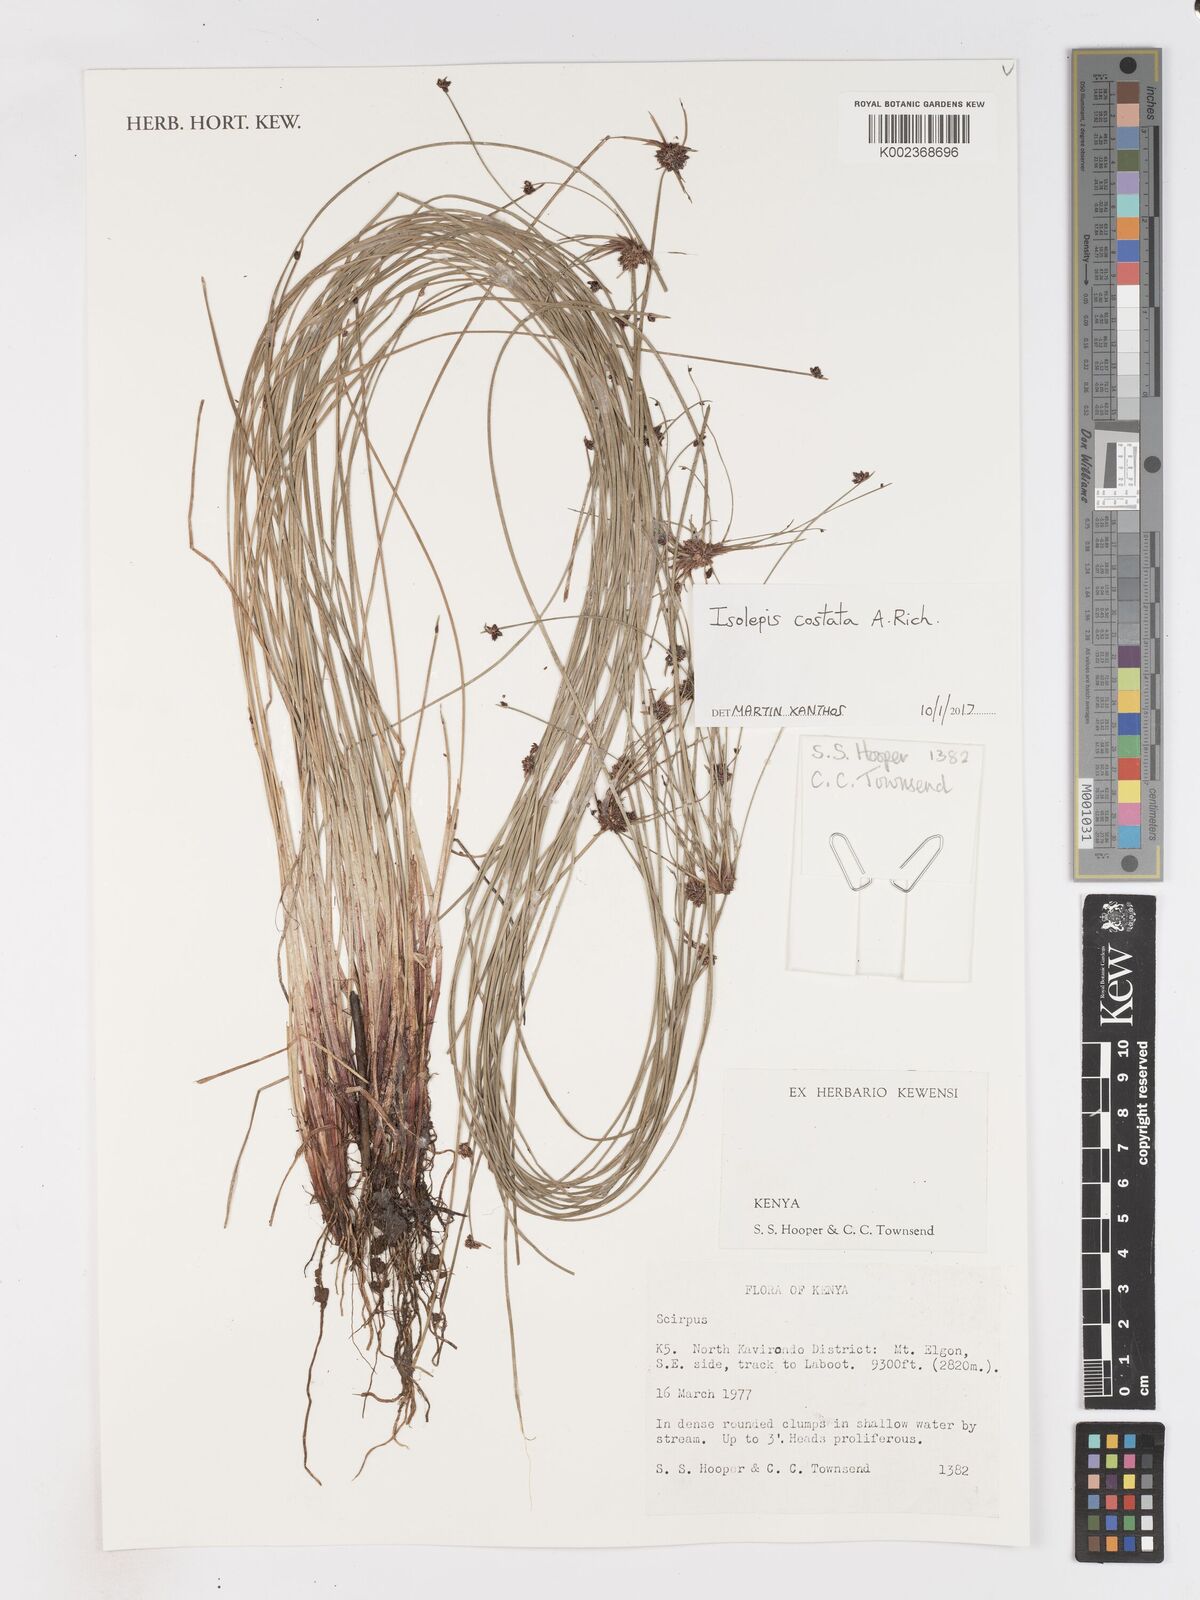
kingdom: Plantae
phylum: Tracheophyta
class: Liliopsida
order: Poales
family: Cyperaceae
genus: Isolepis
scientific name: Isolepis costata
